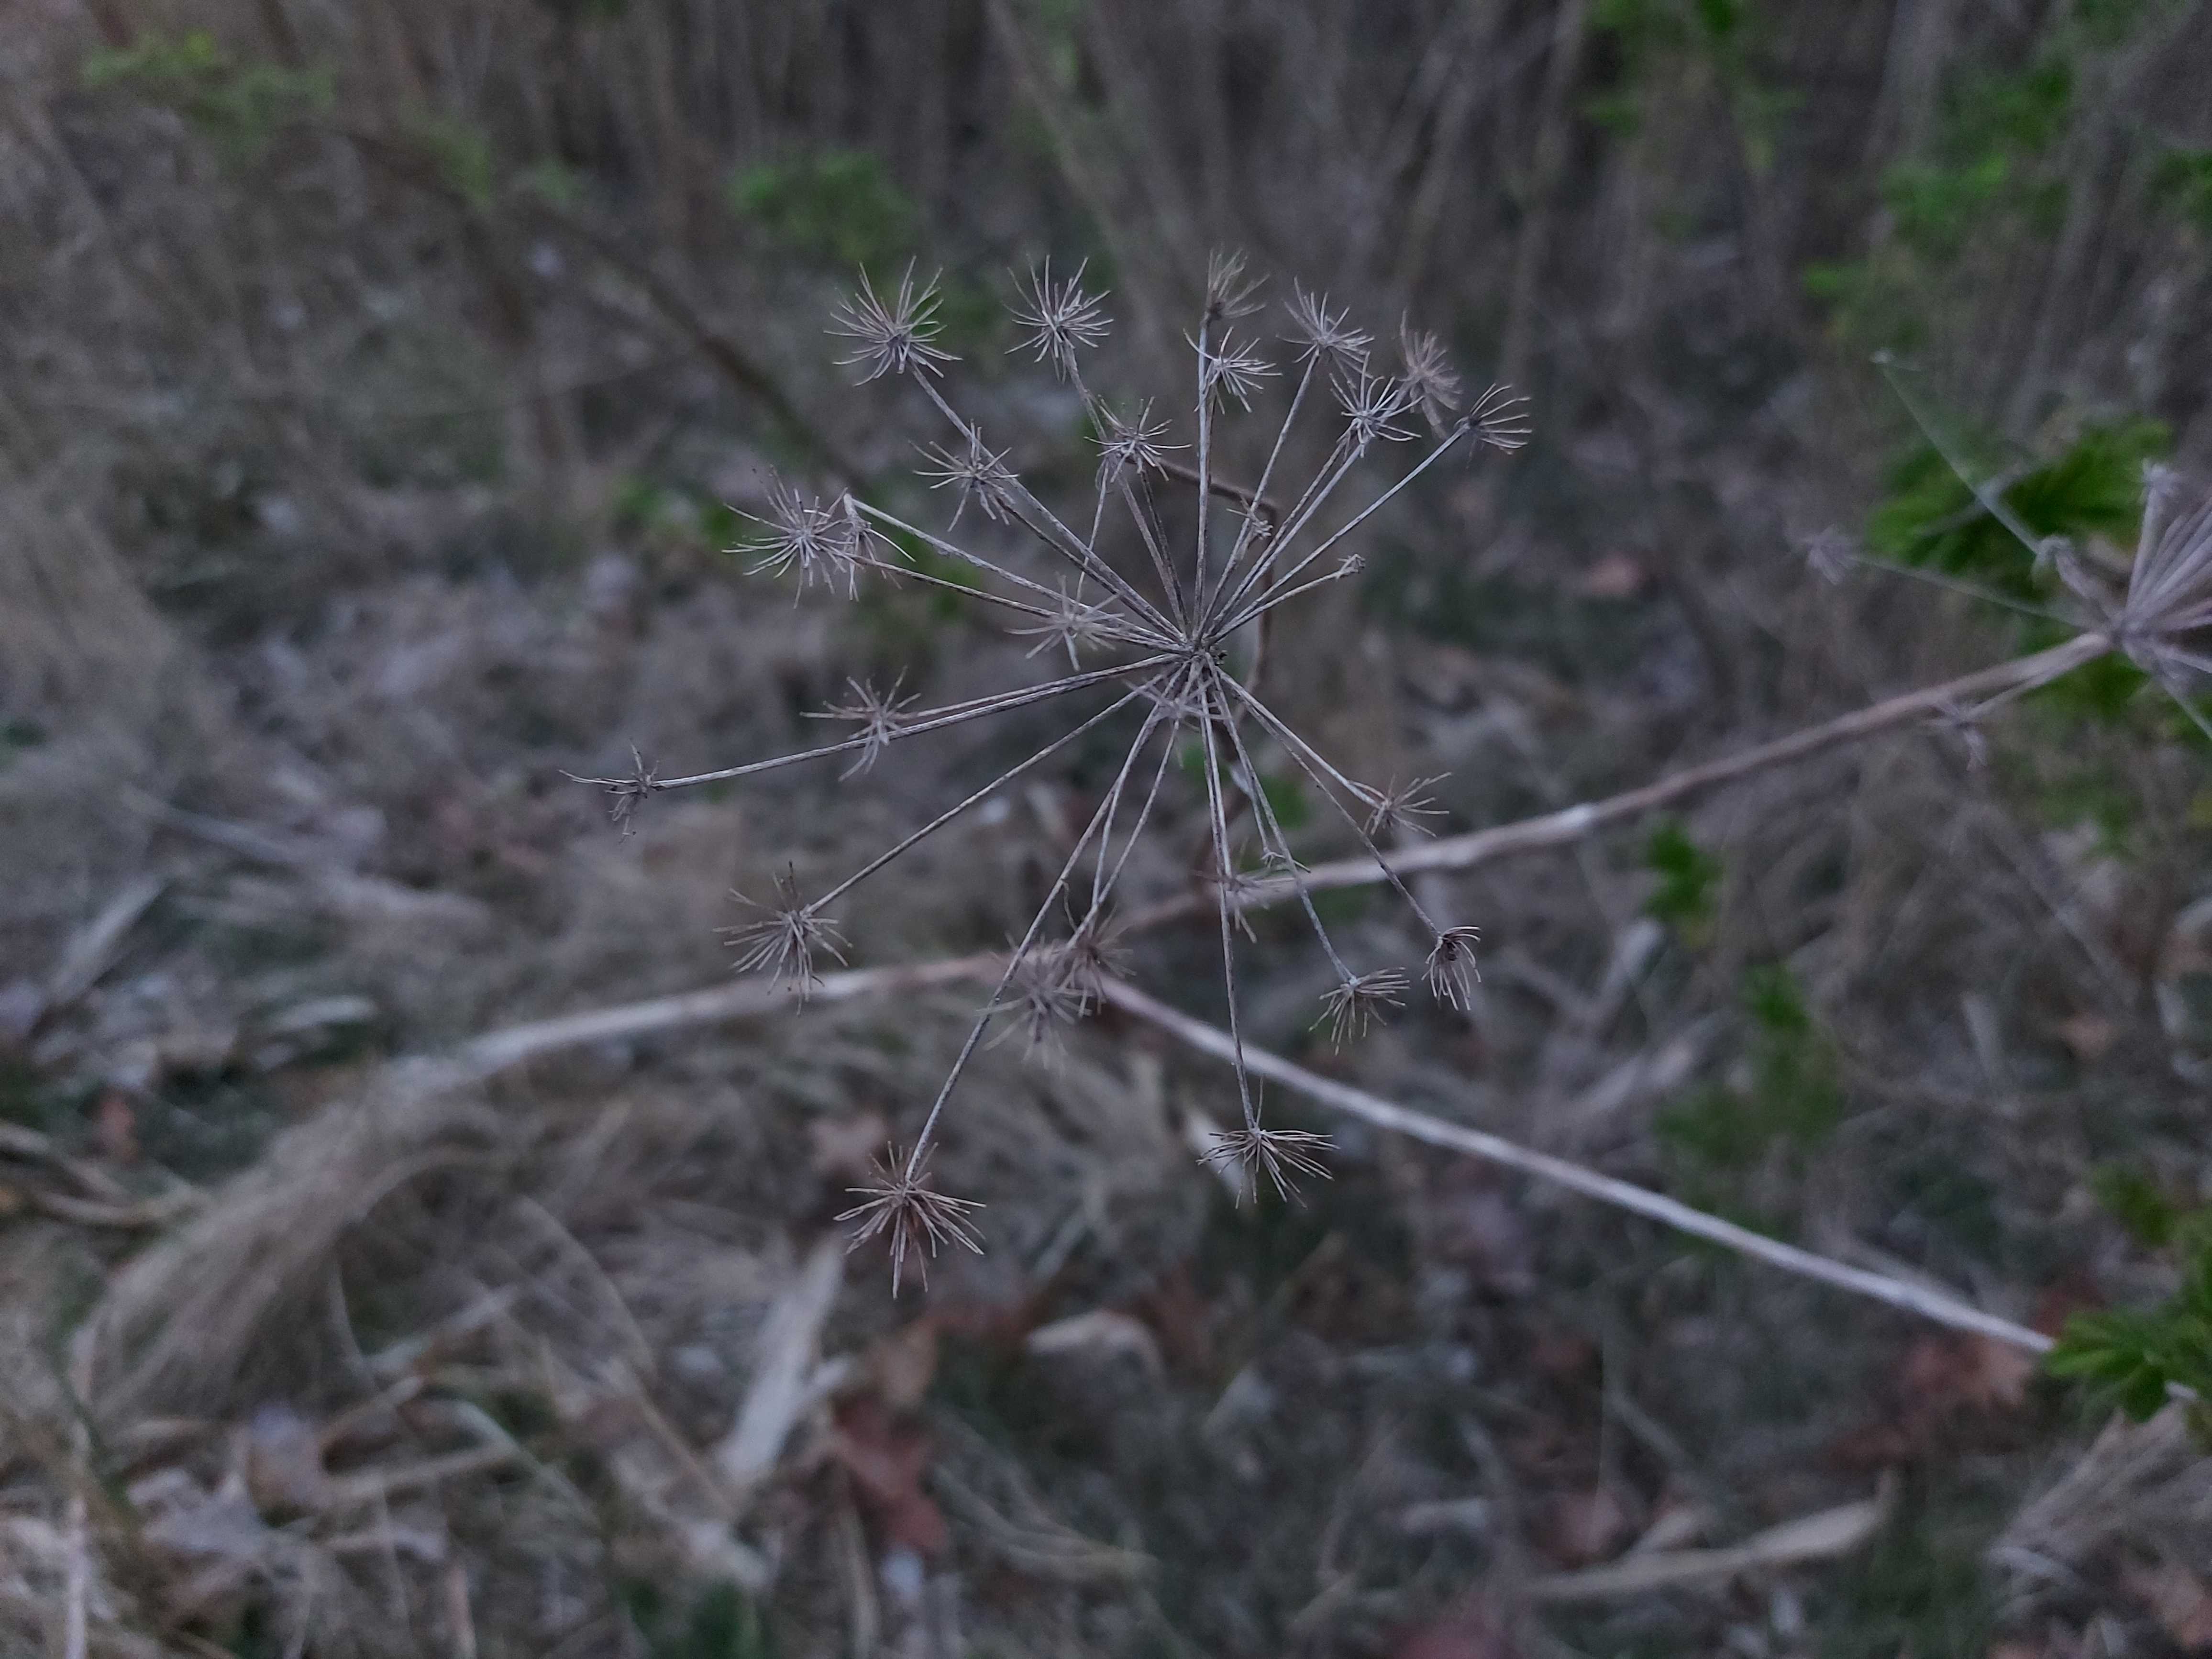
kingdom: Fungi
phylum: Ascomycota
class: Leotiomycetes
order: Helotiales
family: Heterosphaeriaceae
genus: Heterosphaeria
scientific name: Heterosphaeria
